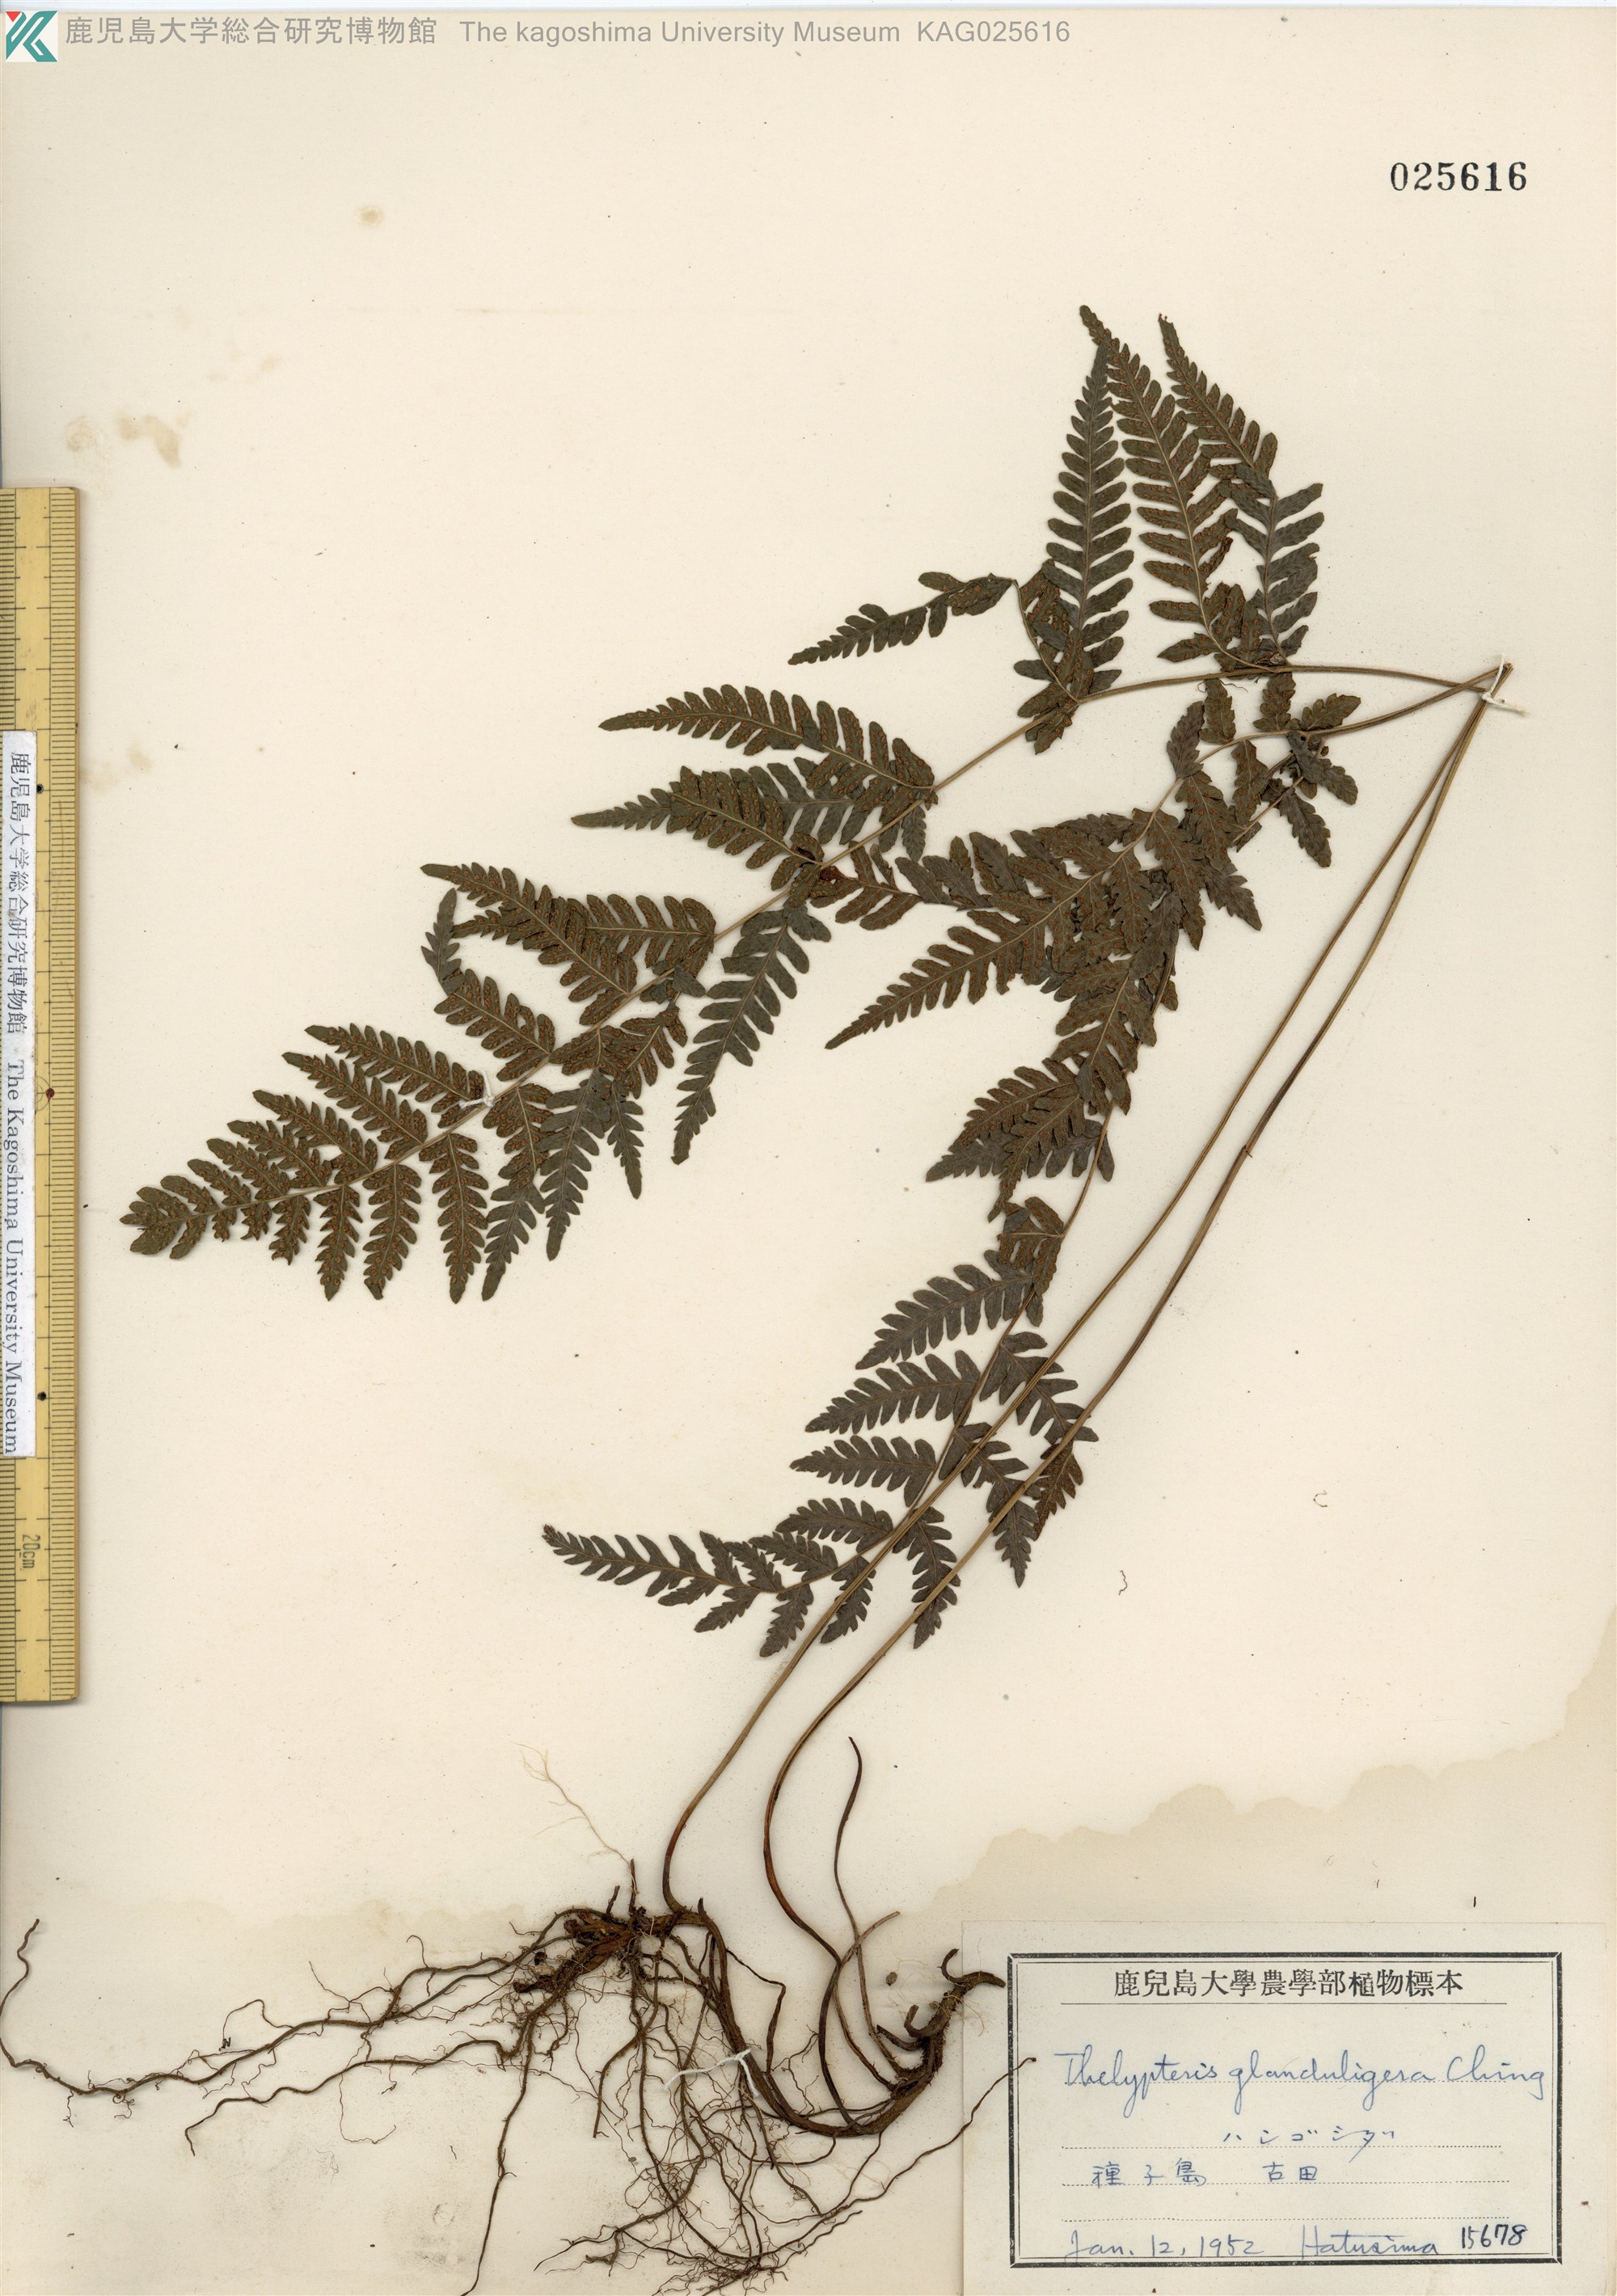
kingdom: Plantae
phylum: Tracheophyta
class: Polypodiopsida
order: Polypodiales
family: Thelypteridaceae
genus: Amauropelta
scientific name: Amauropelta angustifrons
